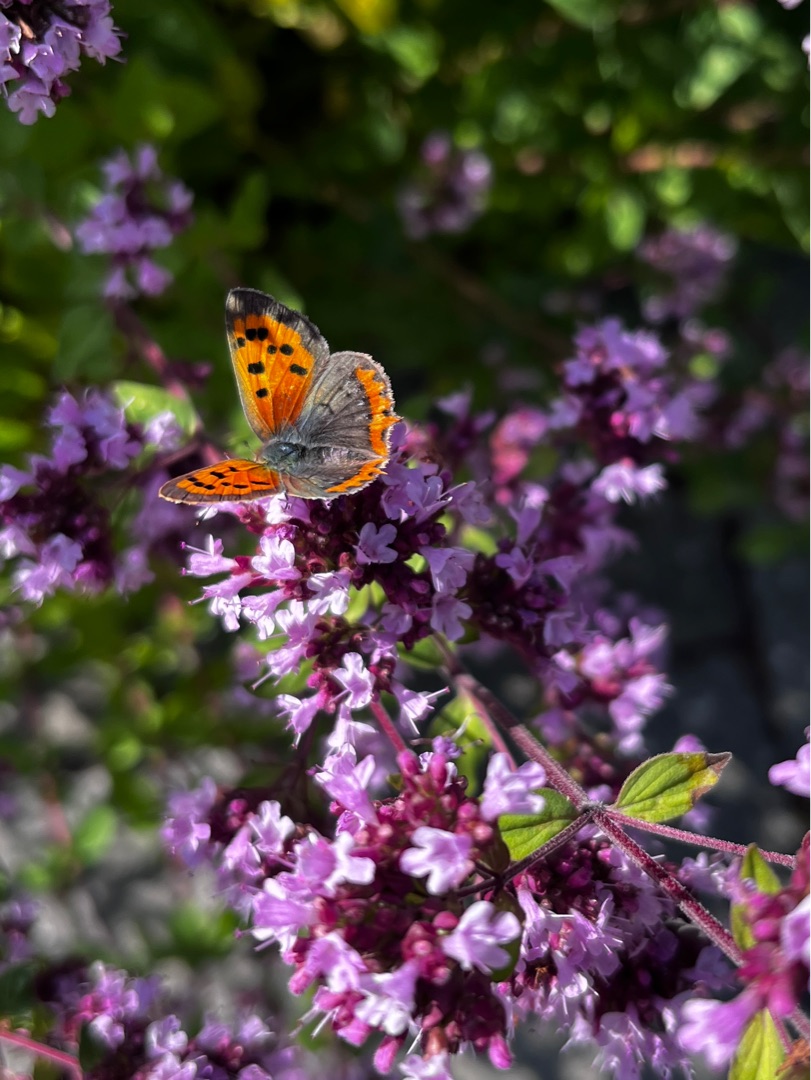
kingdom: Animalia
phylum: Arthropoda
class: Insecta
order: Lepidoptera
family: Lycaenidae
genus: Lycaena
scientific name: Lycaena phlaeas
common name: Lille ildfugl
